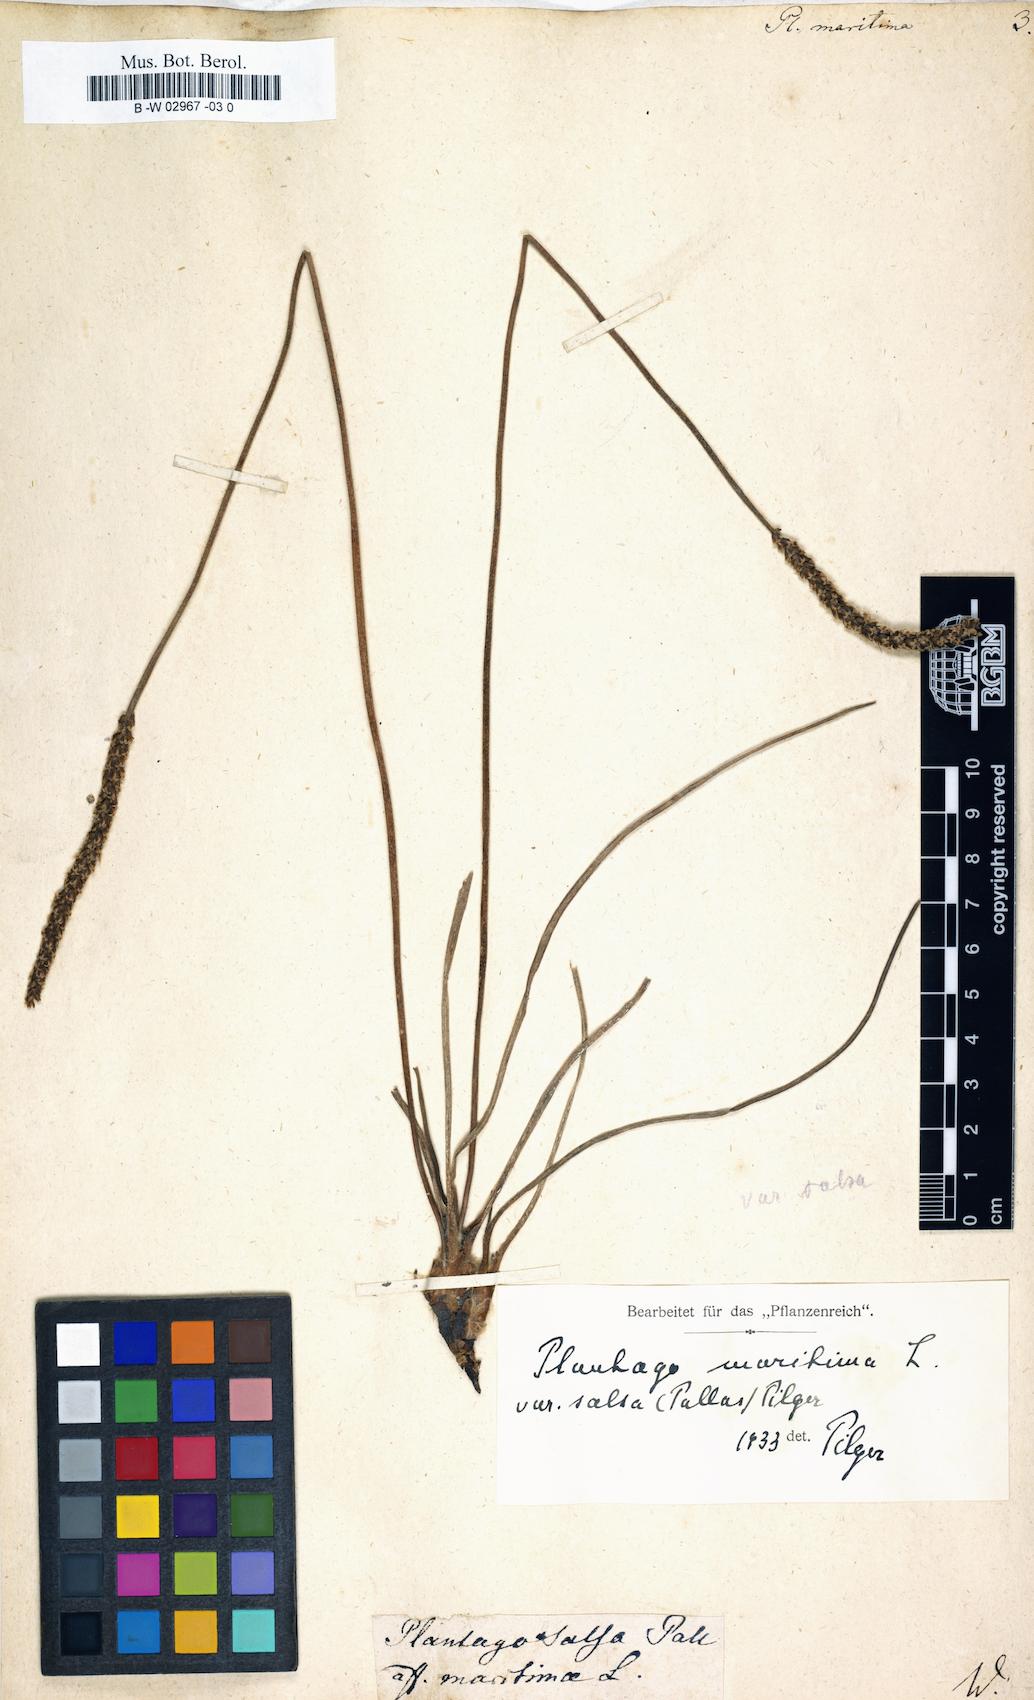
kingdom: Plantae
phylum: Tracheophyta
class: Magnoliopsida
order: Lamiales
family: Plantaginaceae
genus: Plantago
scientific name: Plantago maritima
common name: Sea plantain
